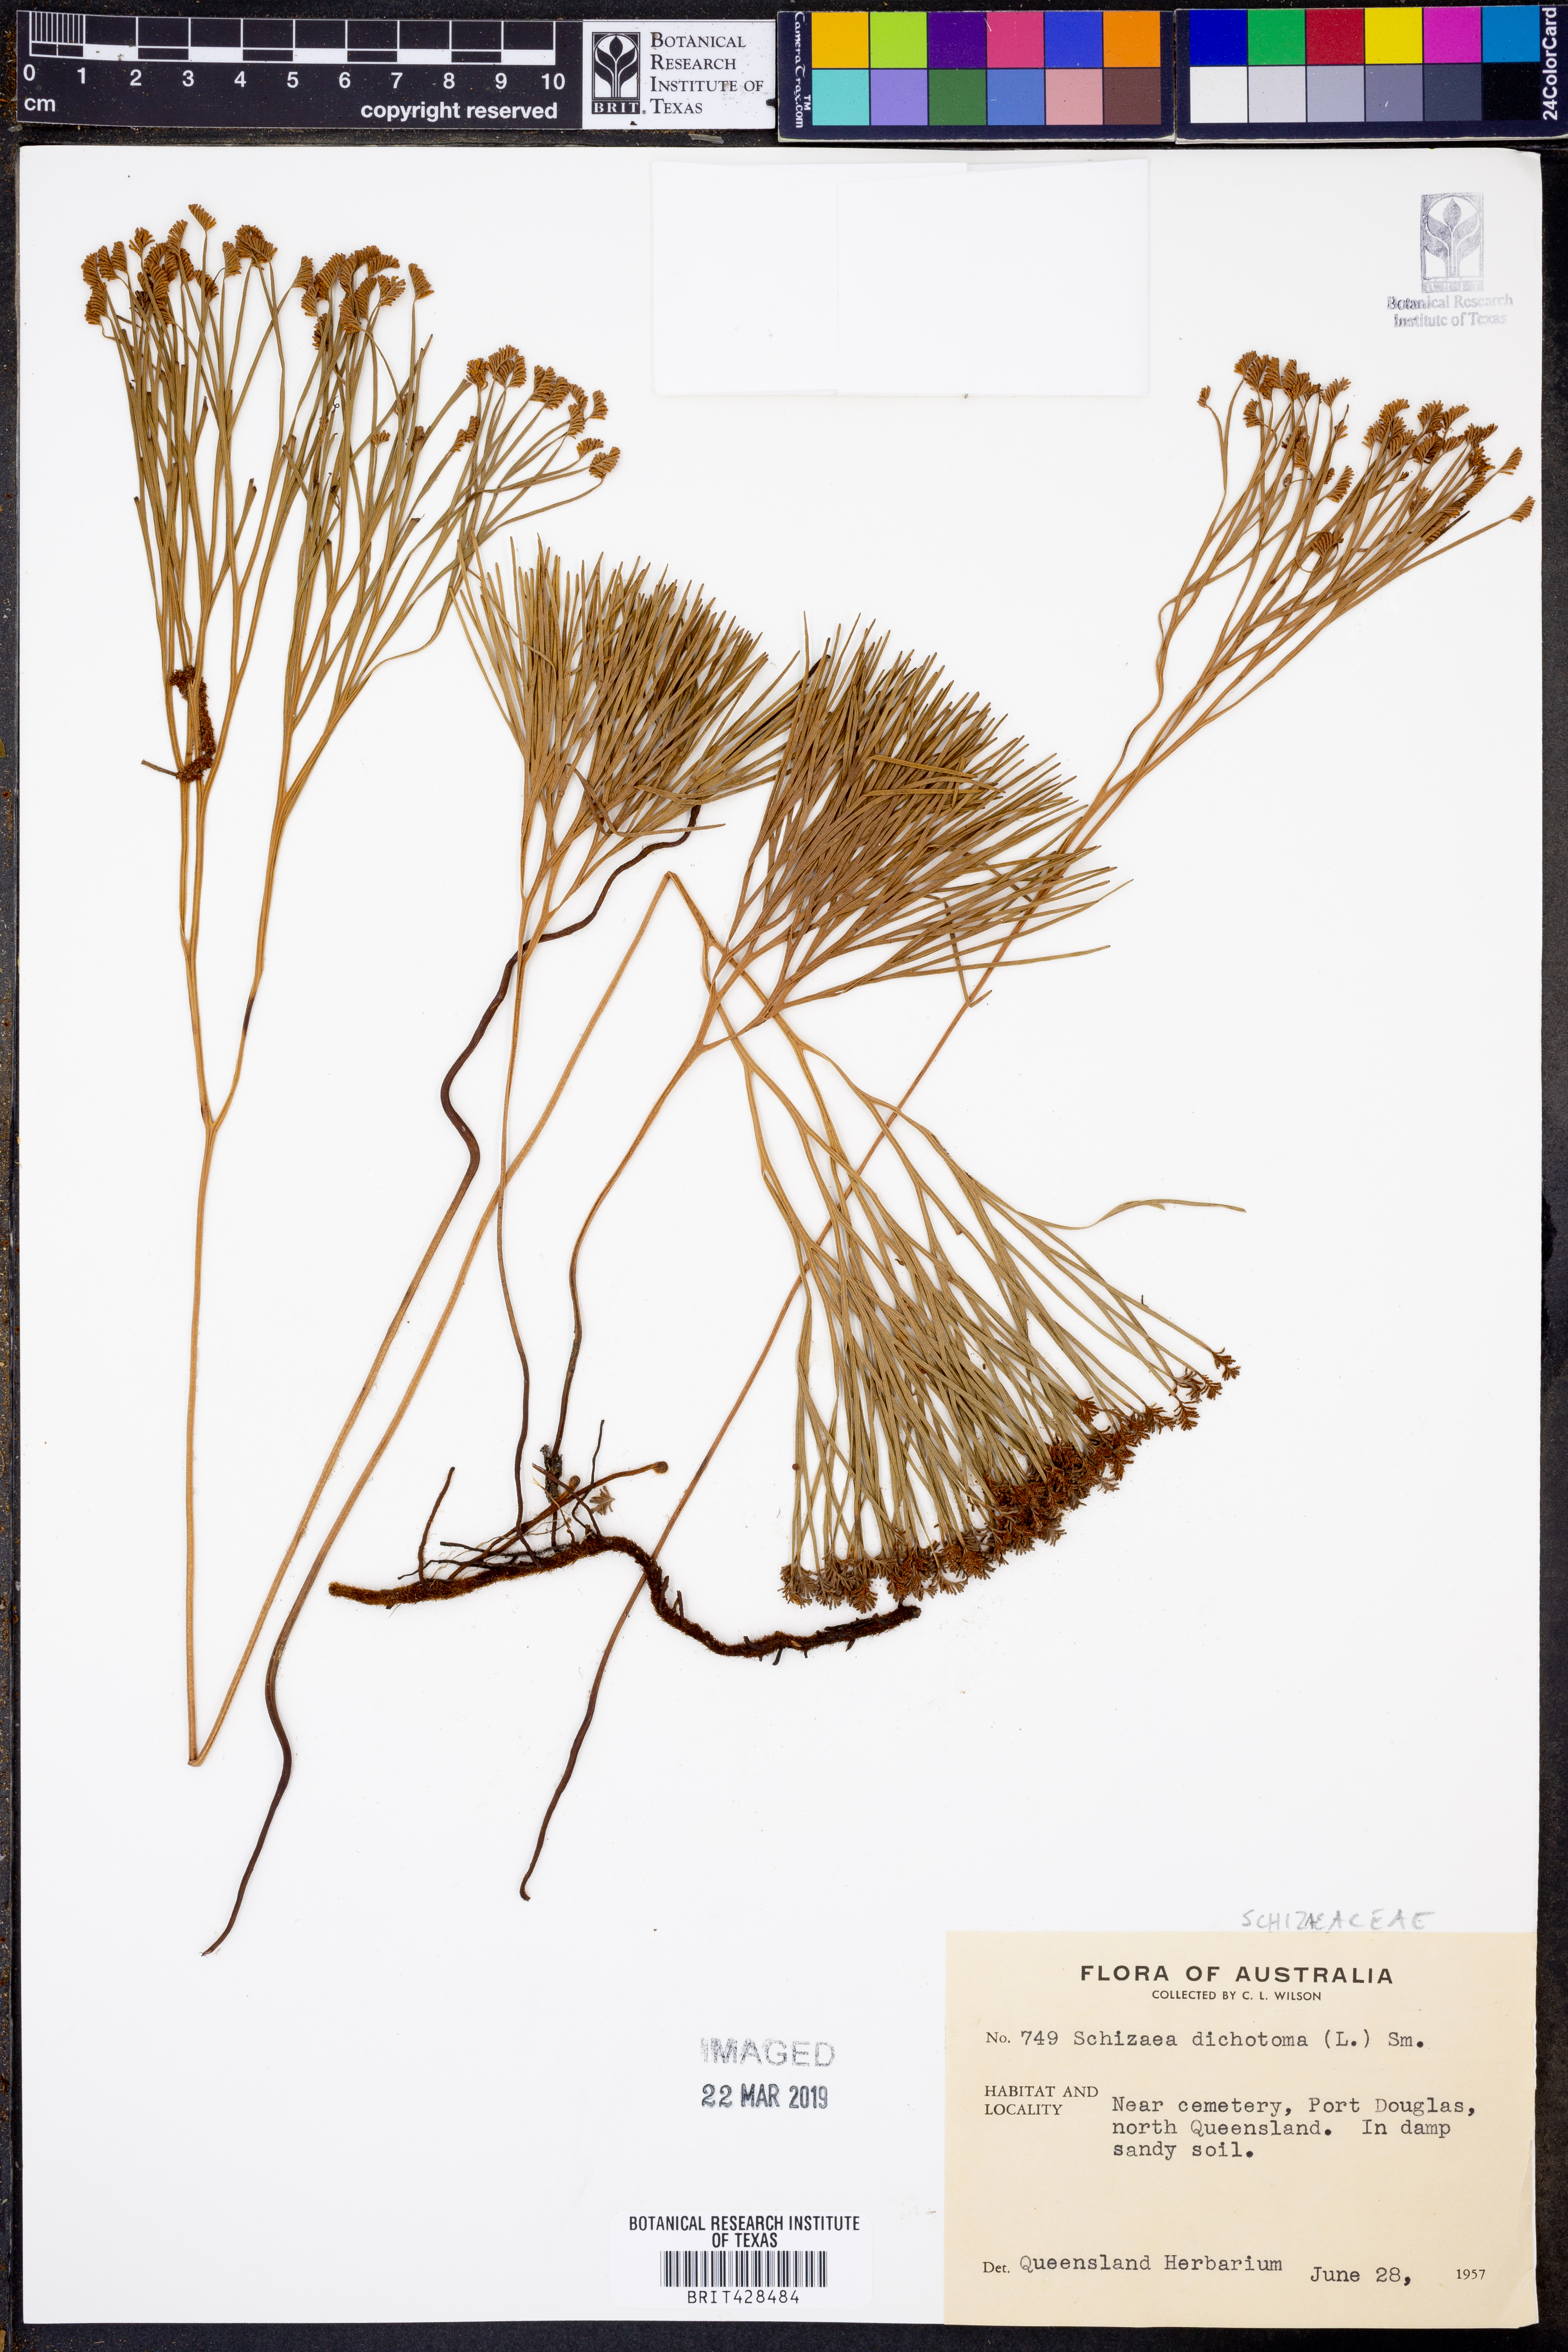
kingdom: Plantae
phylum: Tracheophyta
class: Polypodiopsida
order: Schizaeales
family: Schizaeaceae
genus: Schizaea
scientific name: Schizaea dichotoma
